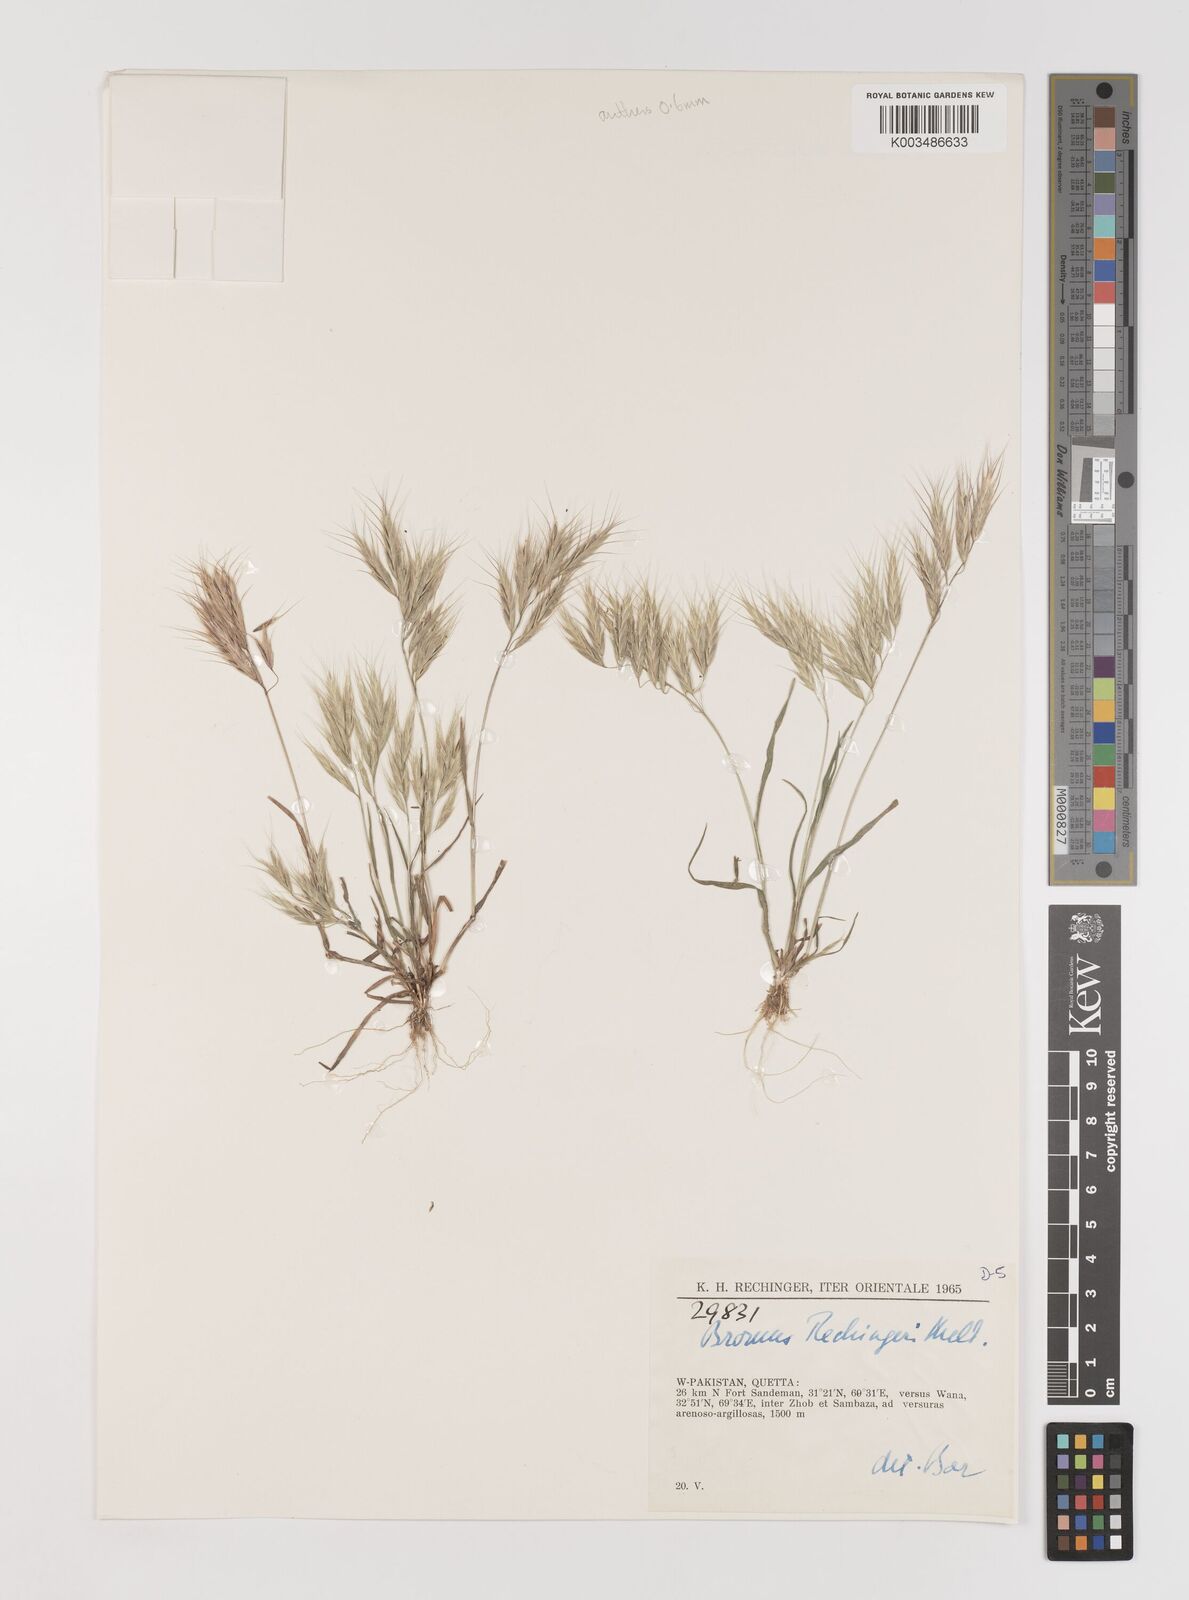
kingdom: Plantae
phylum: Tracheophyta
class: Liliopsida
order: Poales
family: Poaceae
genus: Bromus
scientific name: Bromus pectinatus
